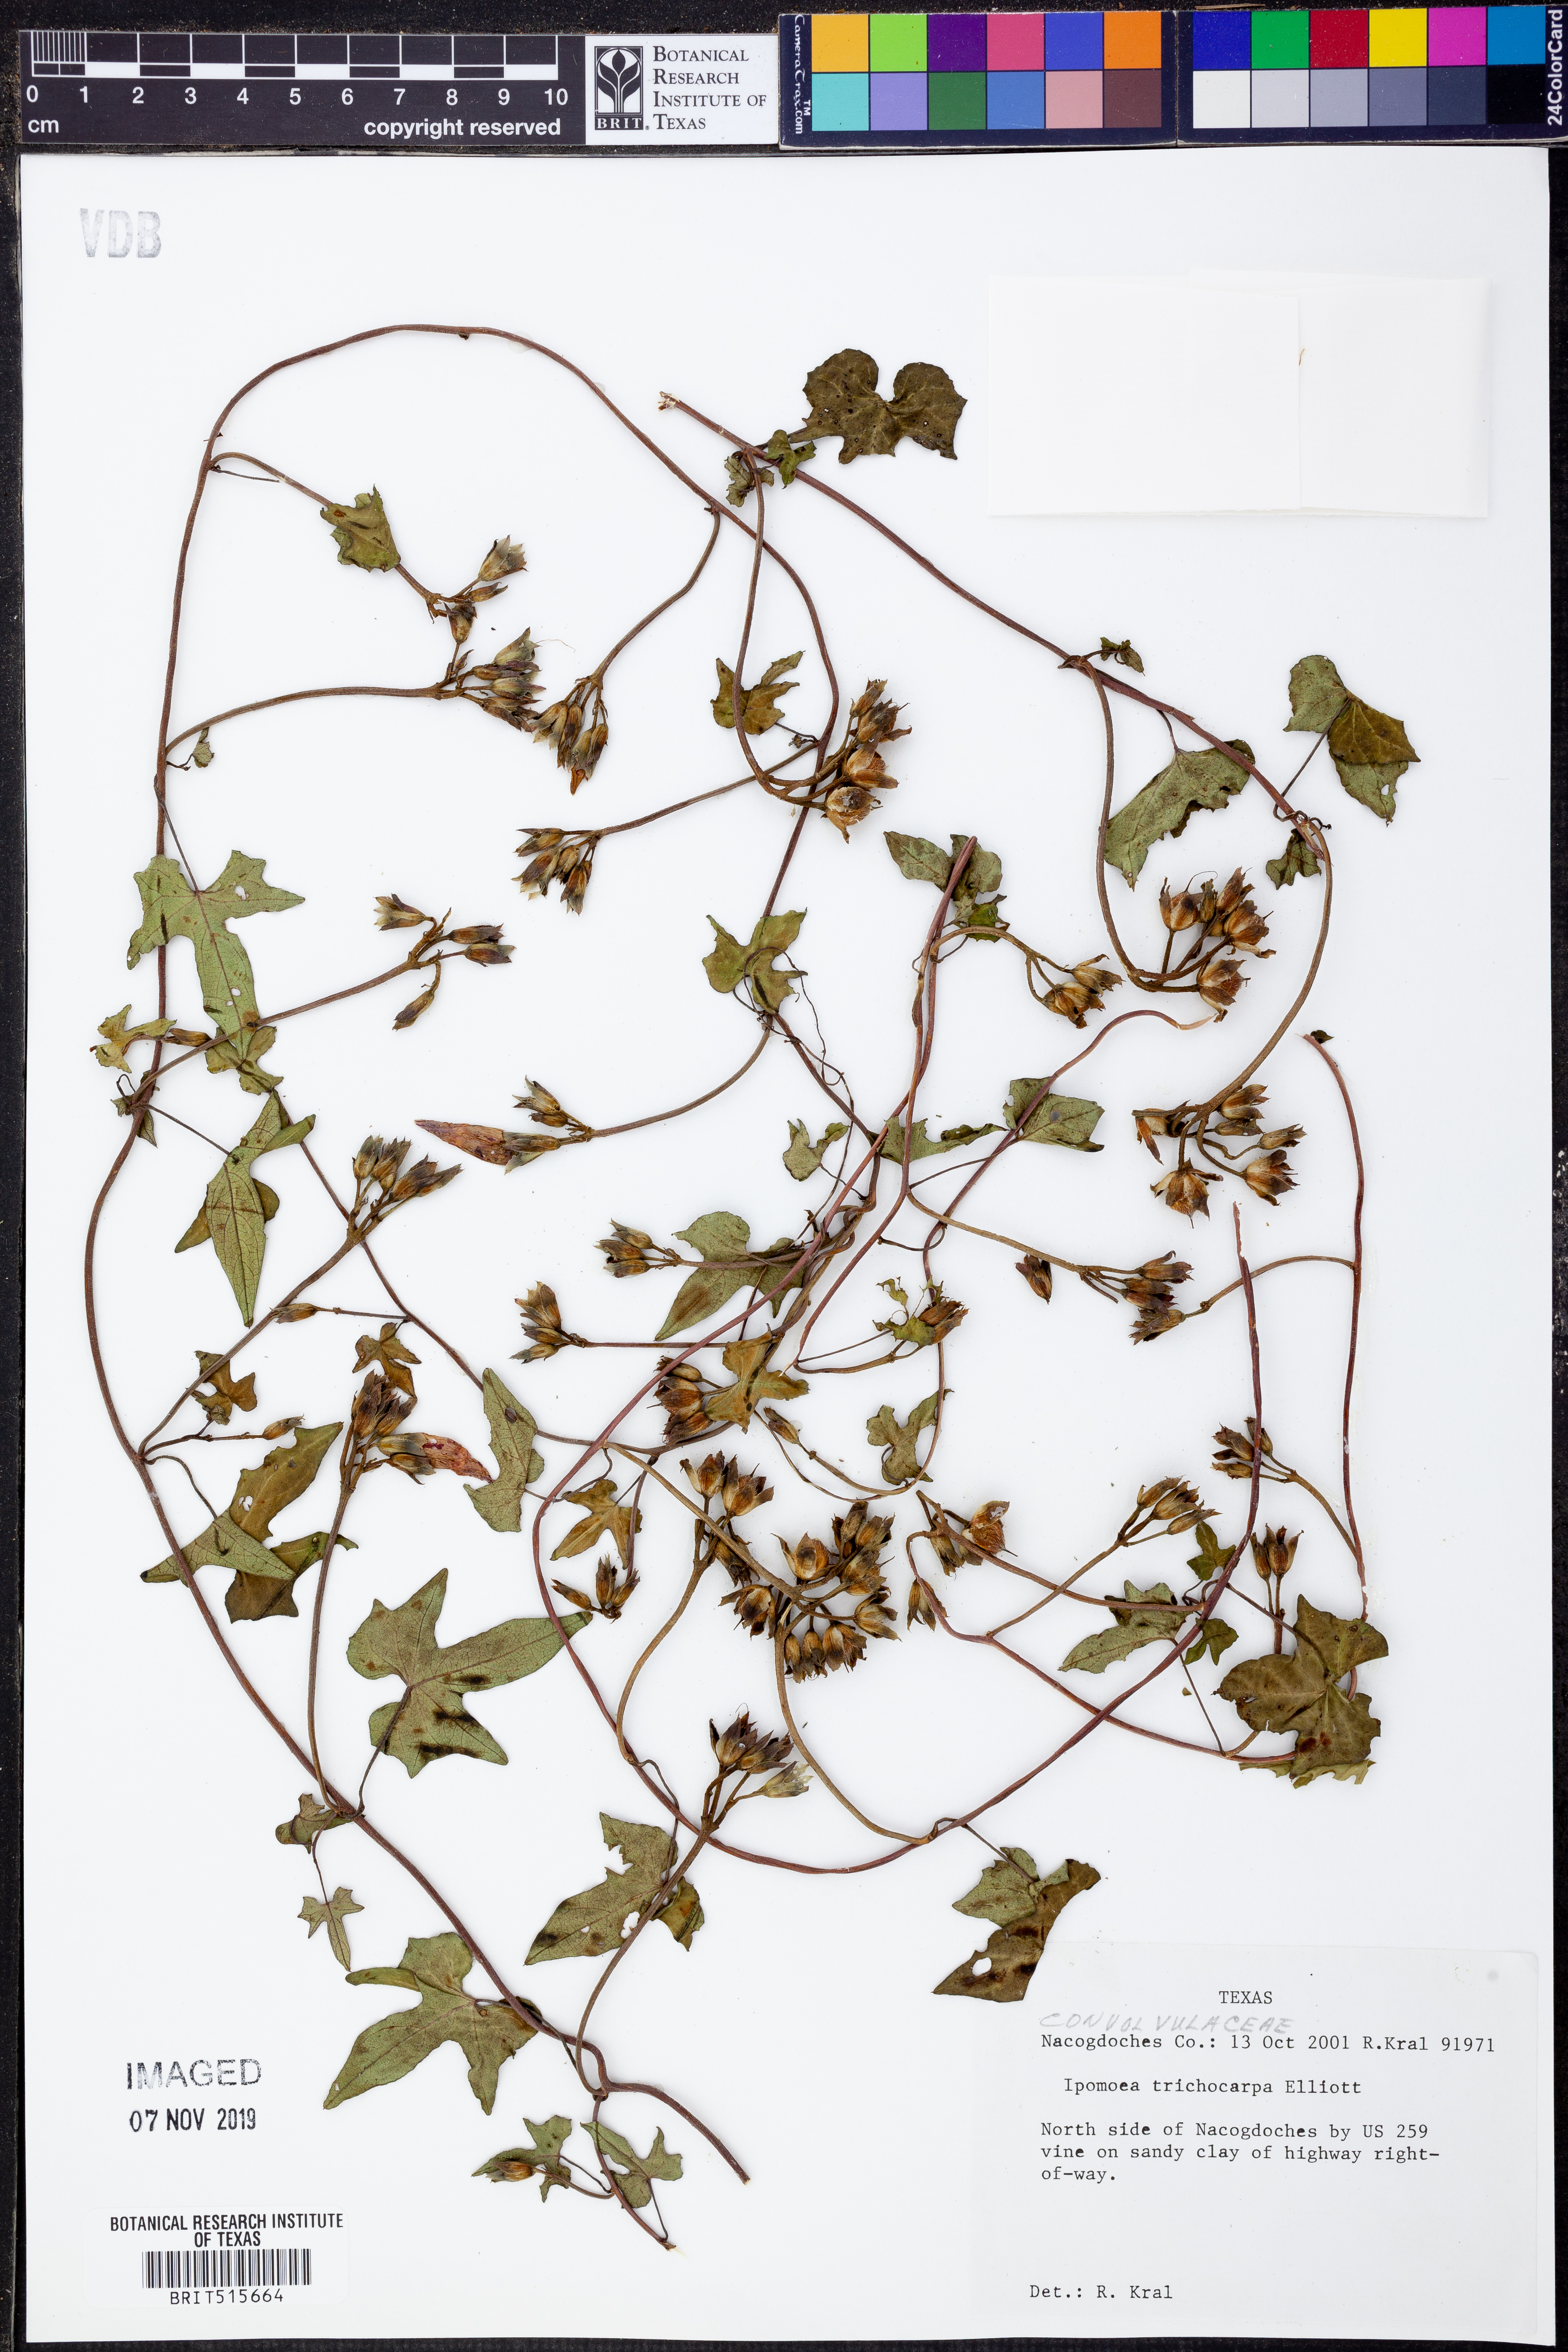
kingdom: Plantae
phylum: Tracheophyta
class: Magnoliopsida
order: Solanales
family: Convolvulaceae
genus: Ipomoea
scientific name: Ipomoea cordatotriloba
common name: Cotton morning glory
